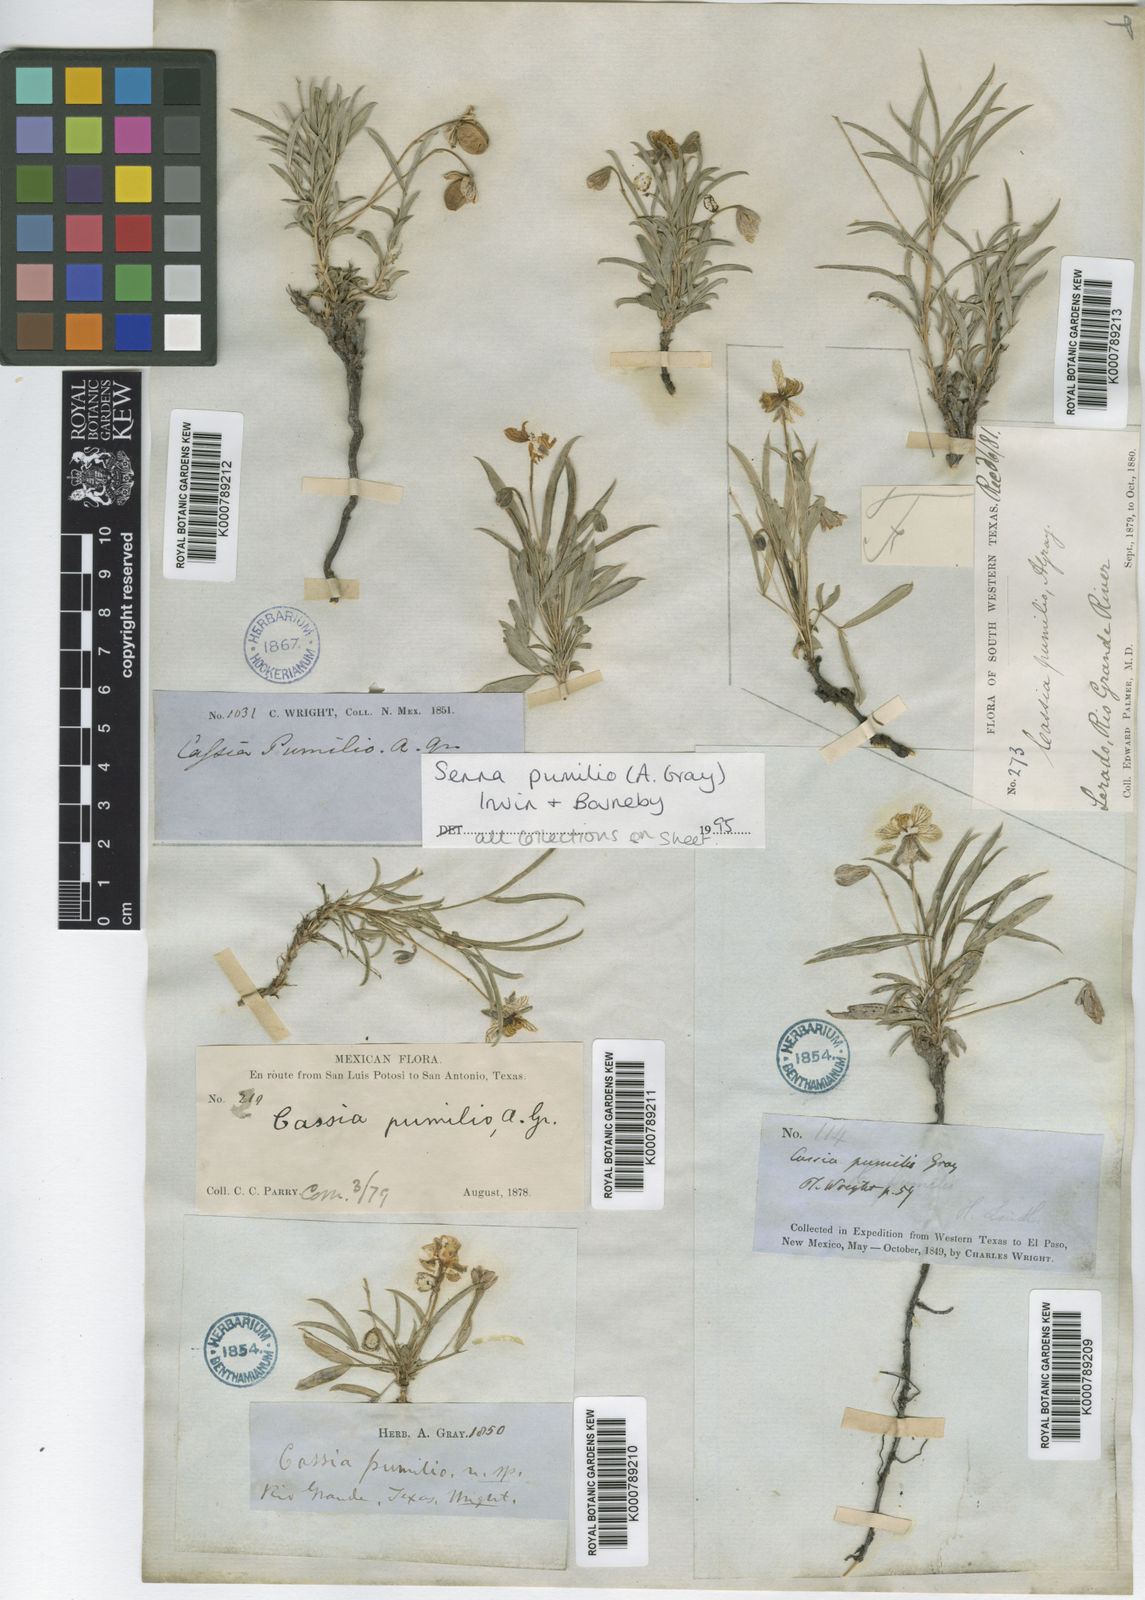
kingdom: Plantae
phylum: Tracheophyta
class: Magnoliopsida
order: Fabales
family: Fabaceae
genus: Senna
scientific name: Senna pumilio
